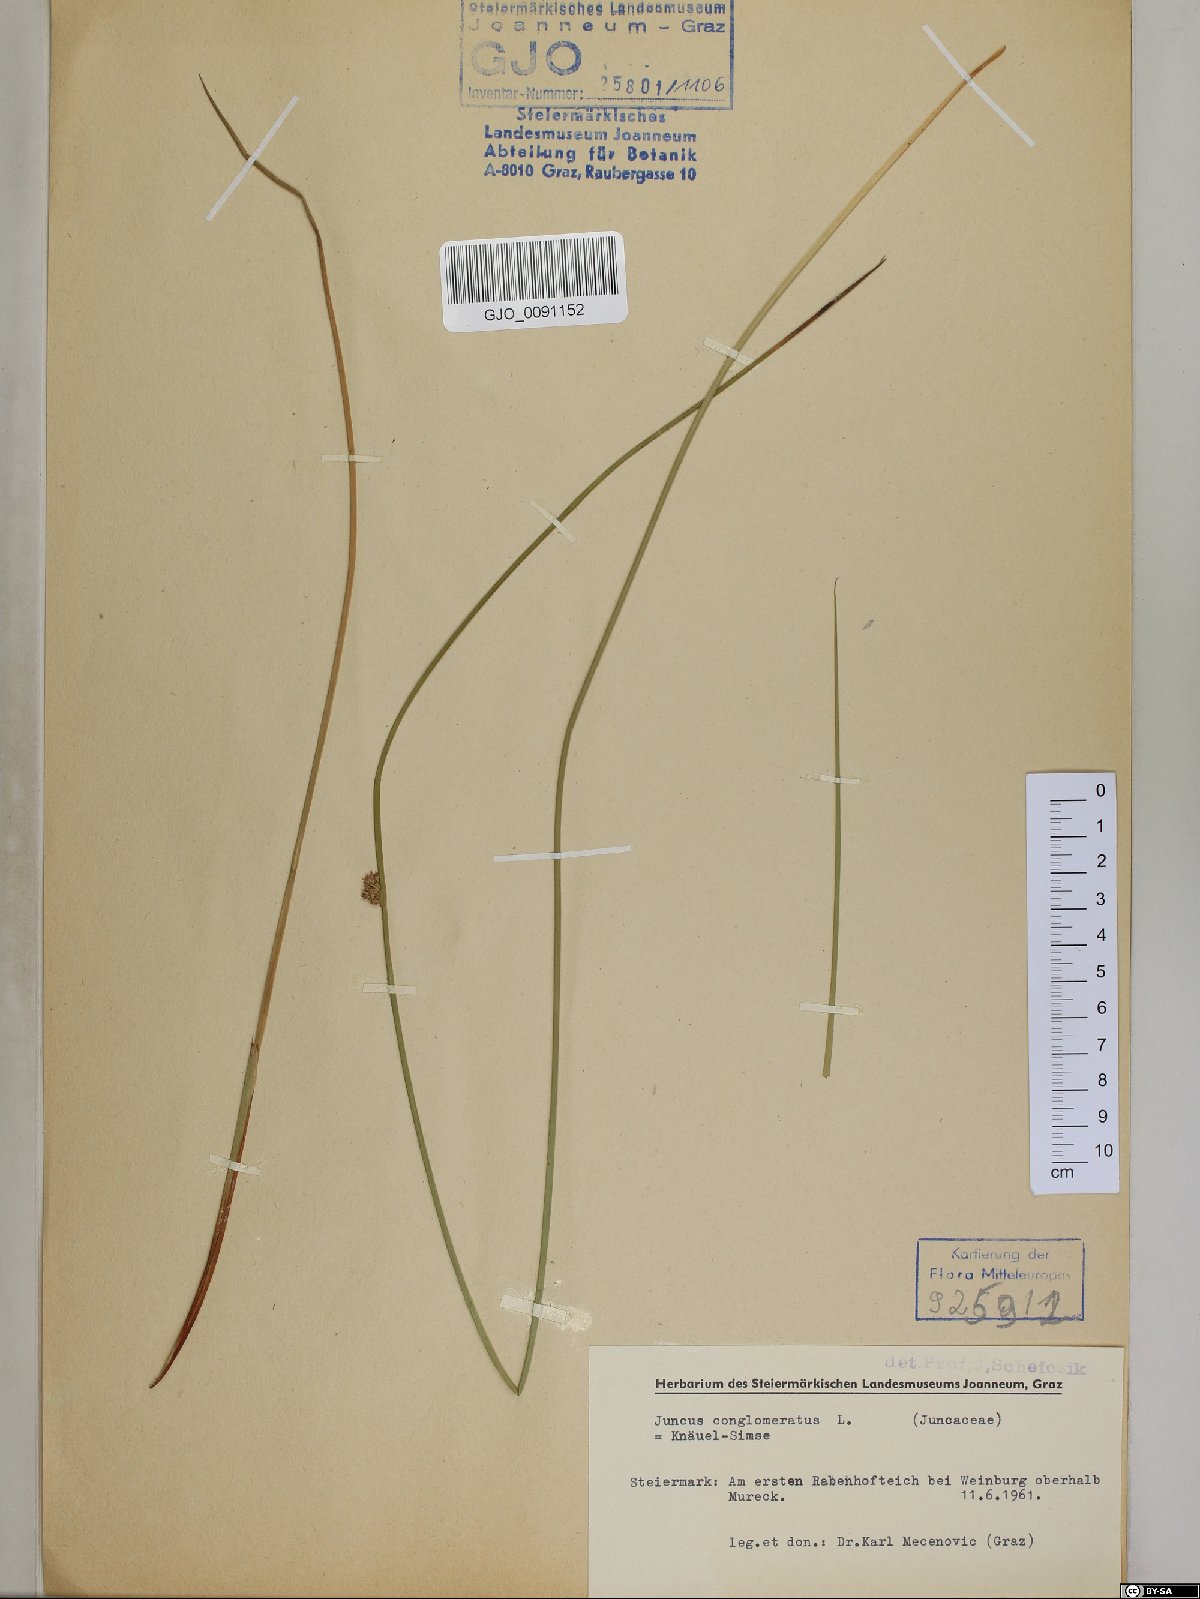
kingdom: Plantae
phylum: Tracheophyta
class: Liliopsida
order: Poales
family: Juncaceae
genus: Juncus
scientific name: Juncus conglomeratus
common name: Compact rush
